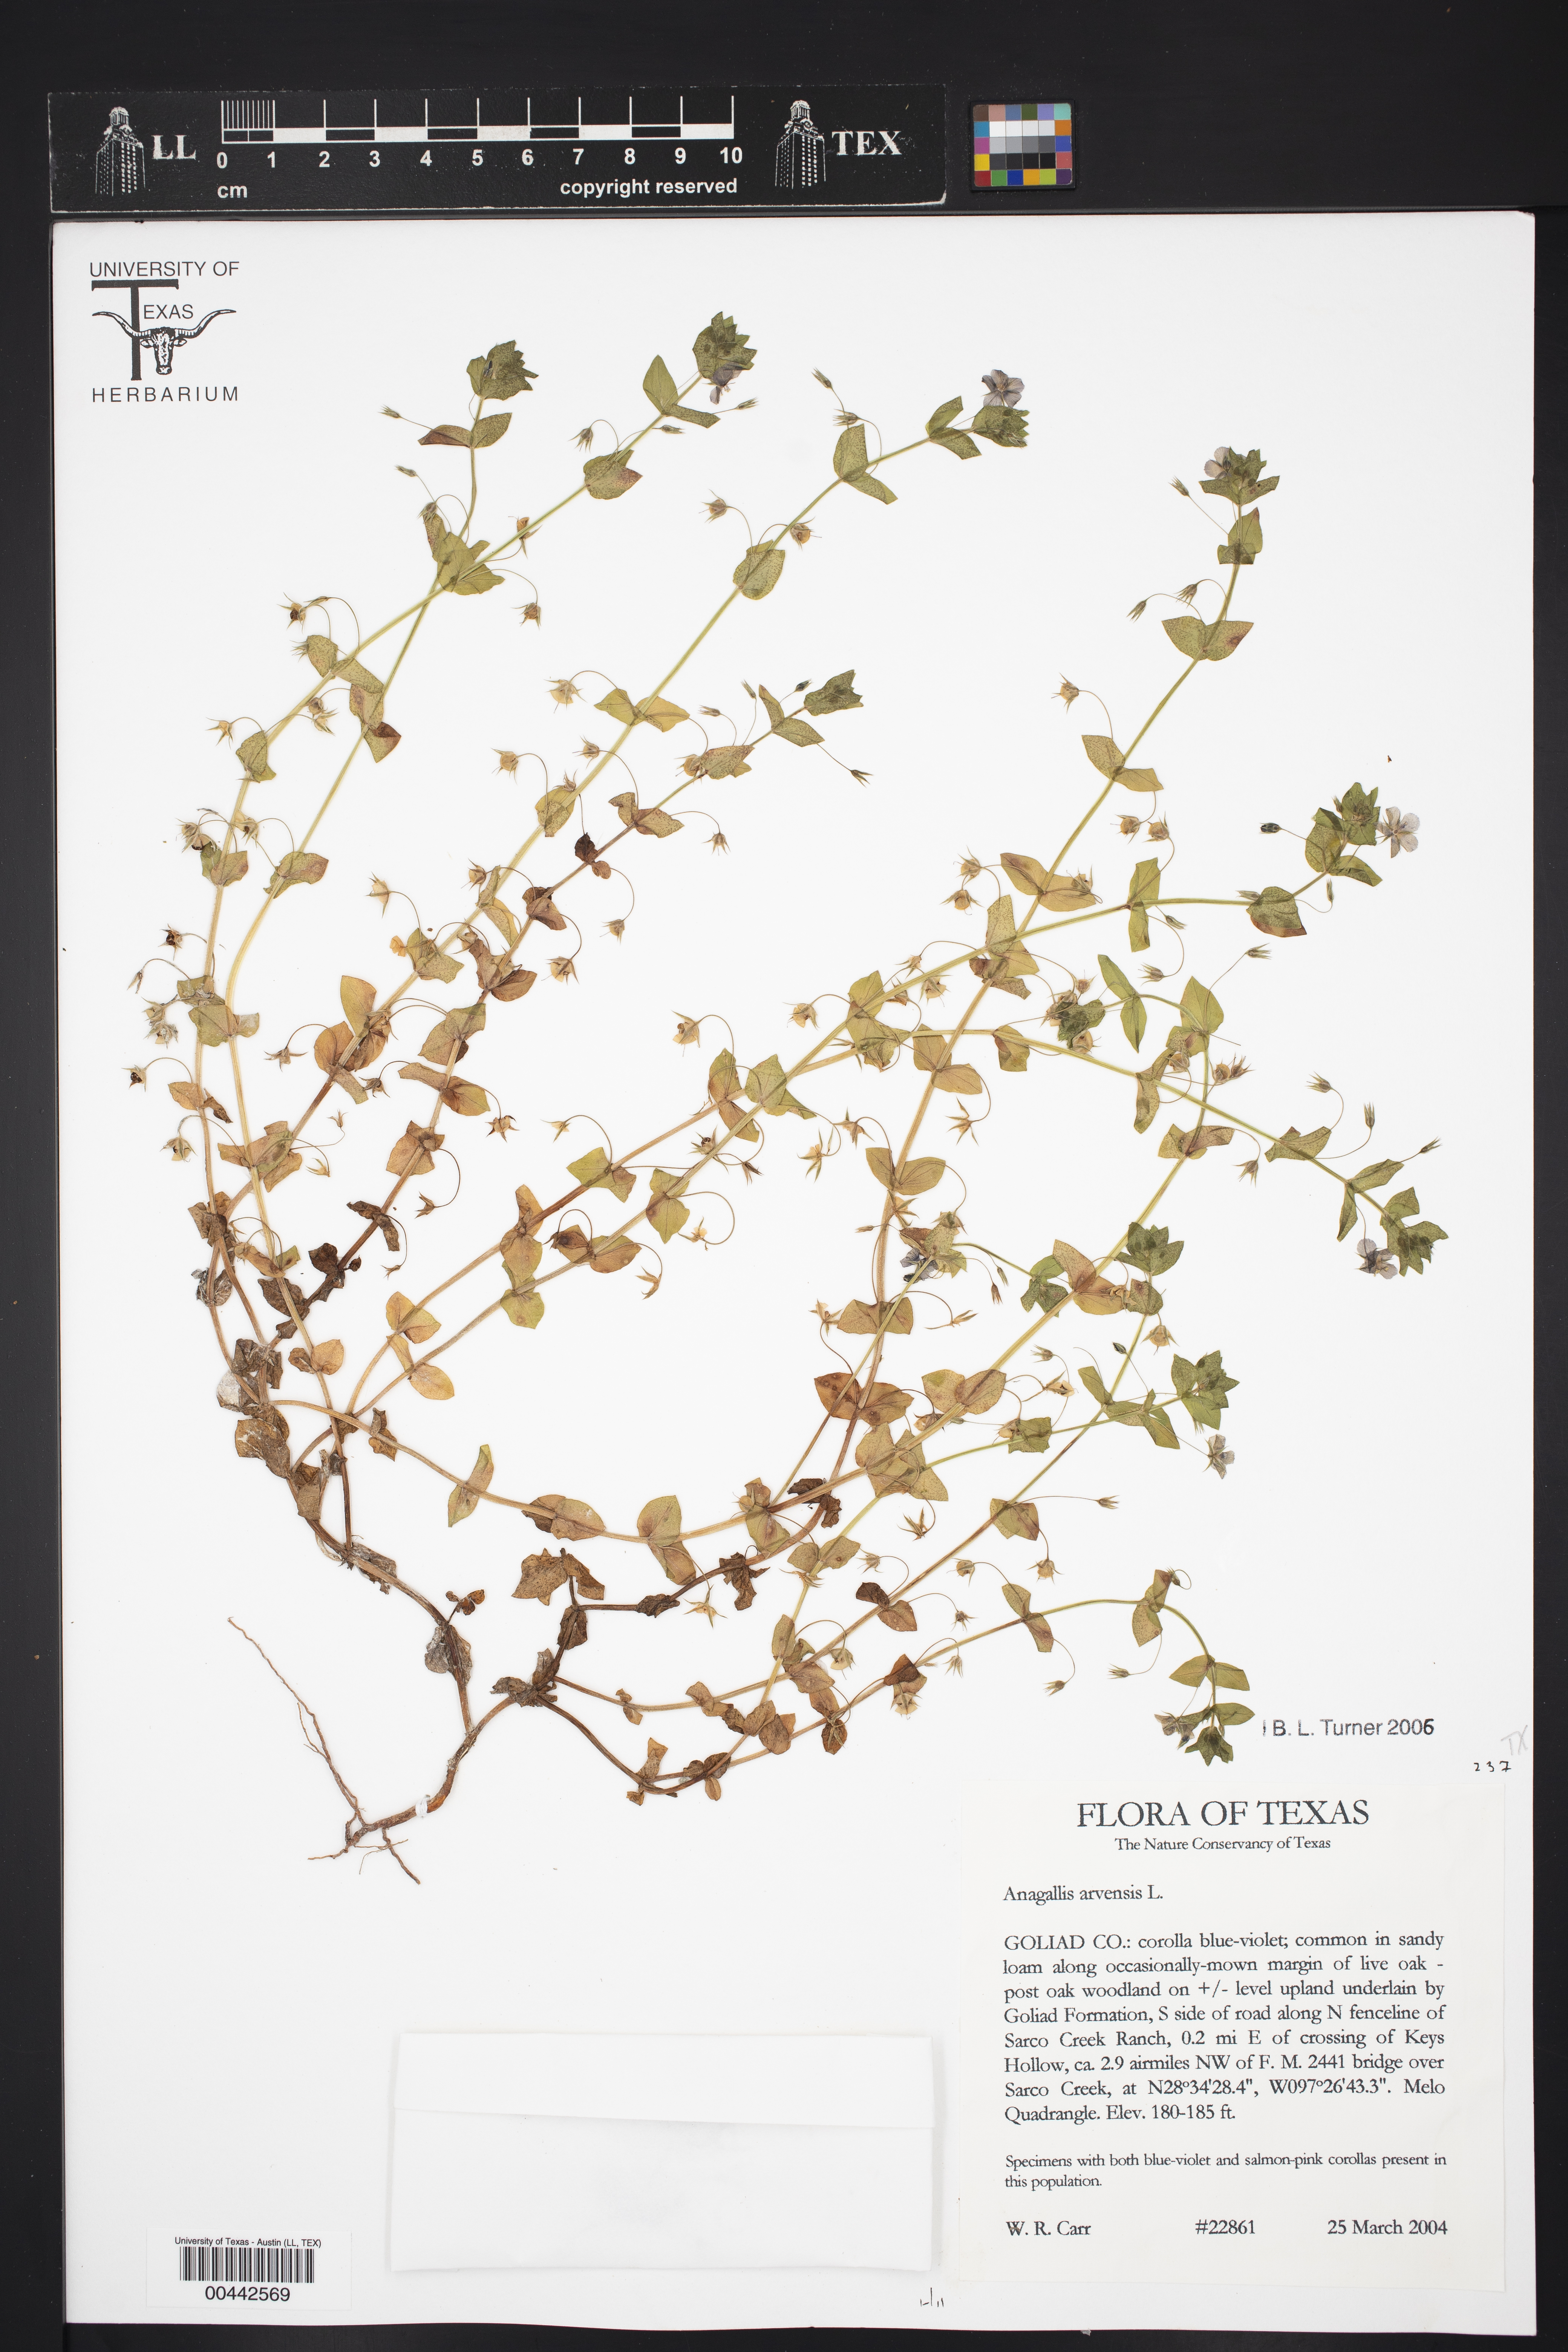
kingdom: Plantae
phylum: Tracheophyta
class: Magnoliopsida
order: Ericales
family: Primulaceae
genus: Lysimachia
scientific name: Lysimachia arvensis
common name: Scarlet pimpernel
